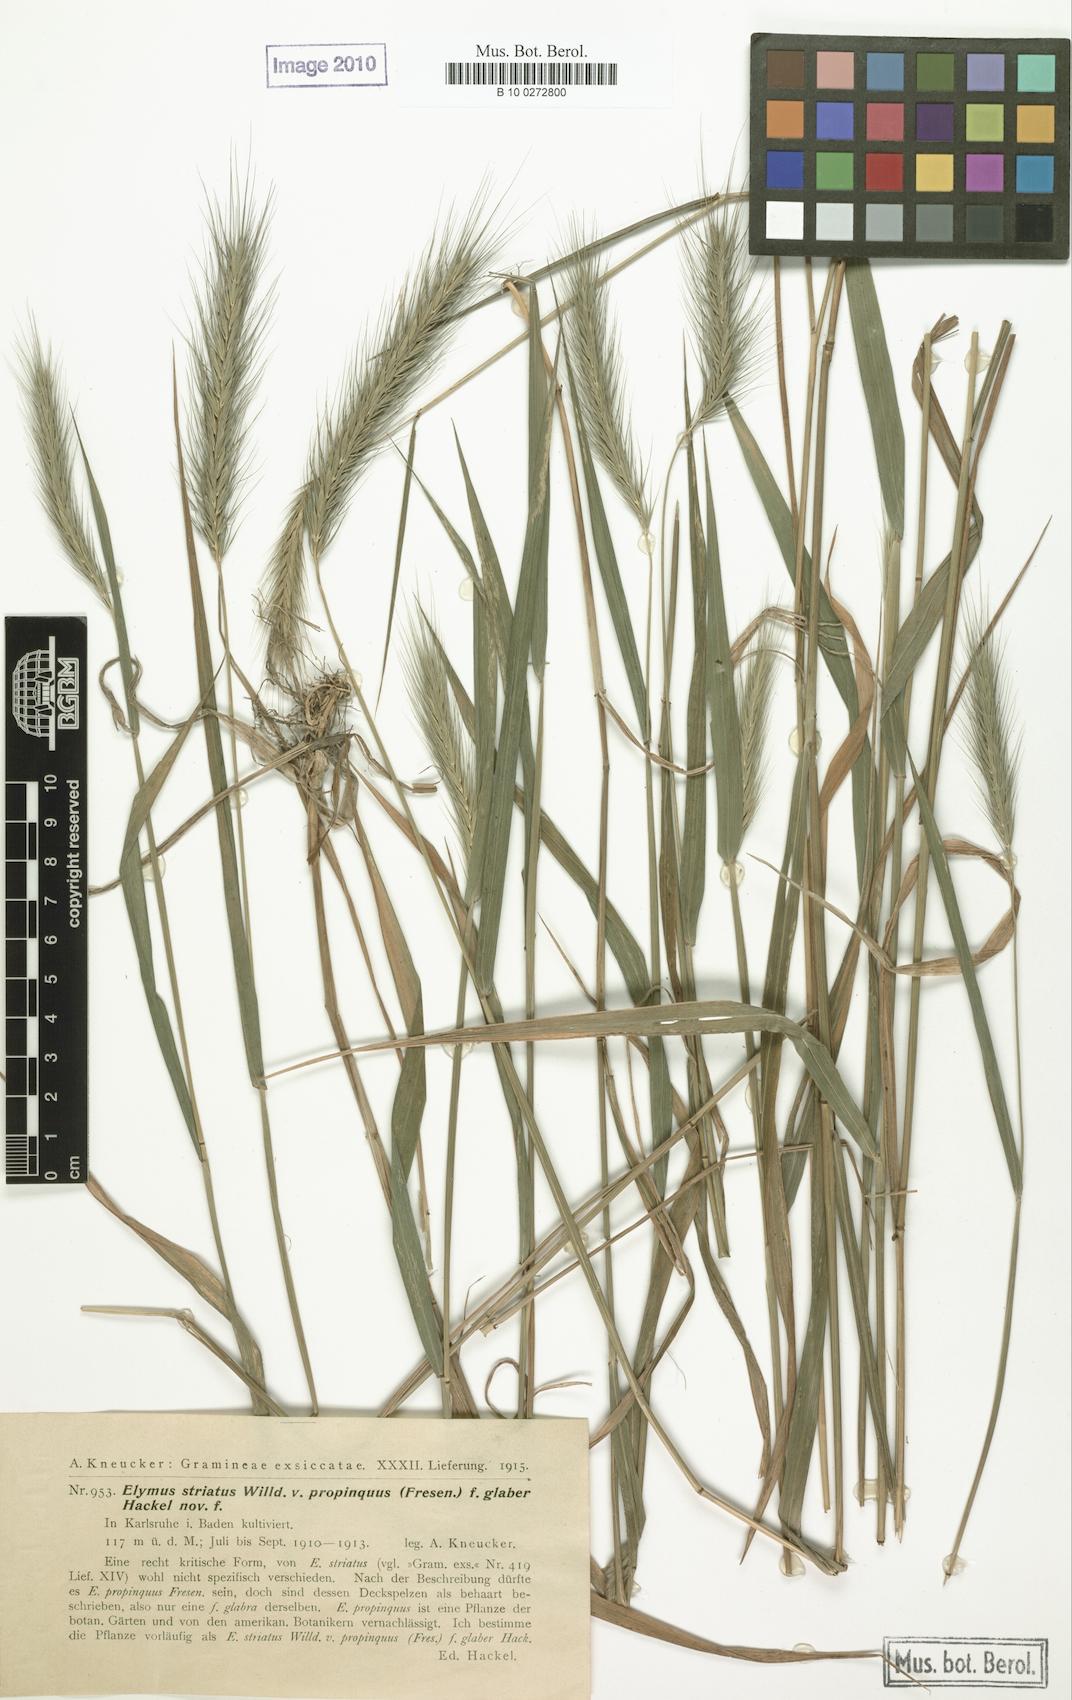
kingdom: Plantae
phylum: Tracheophyta
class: Liliopsida
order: Poales
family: Poaceae
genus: Elymus
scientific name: Elymus villosus
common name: Downy wild rye
